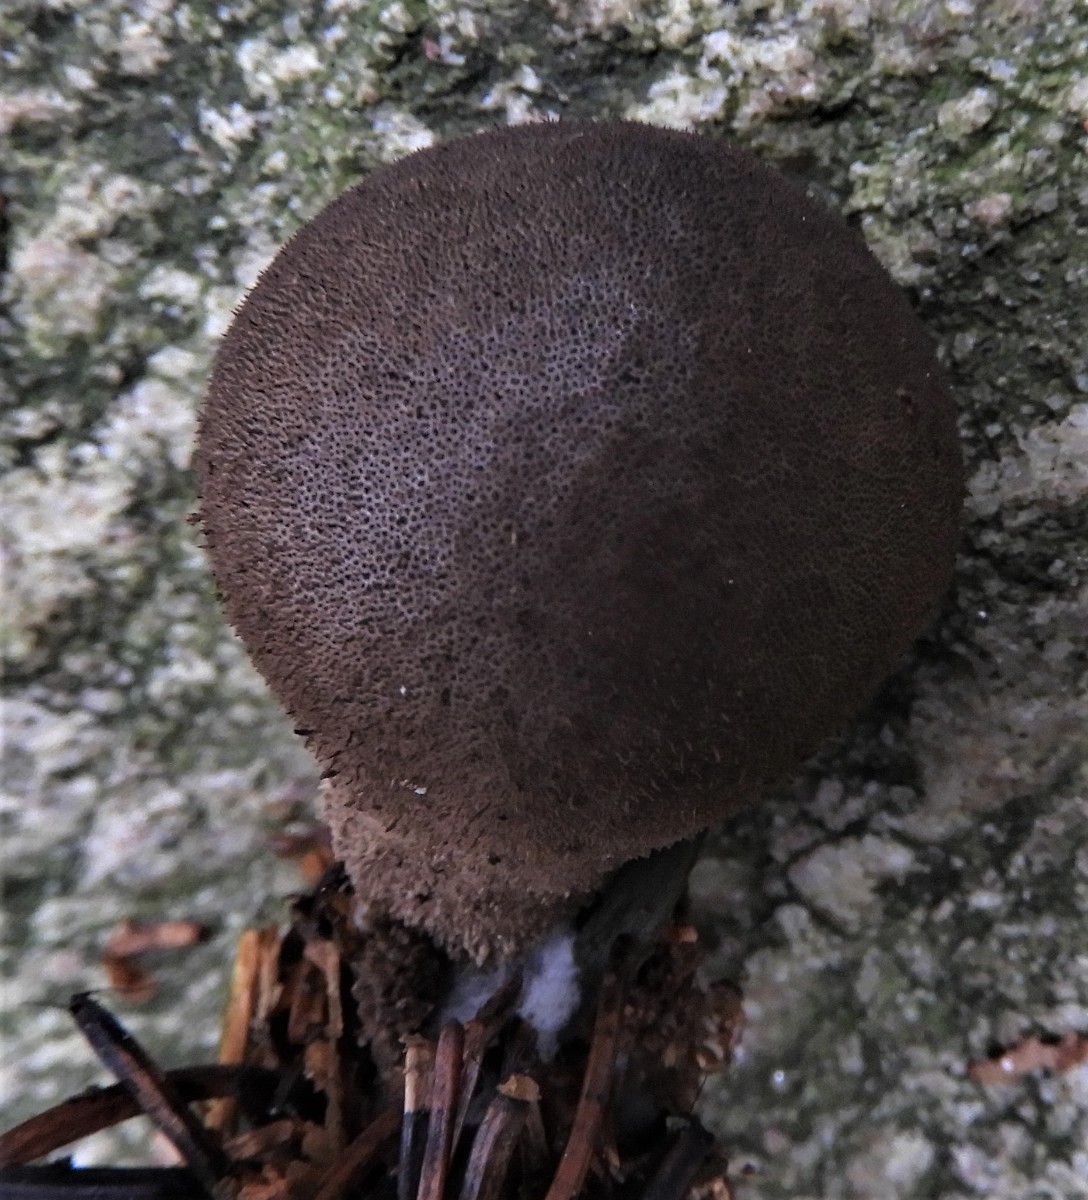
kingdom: Fungi
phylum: Basidiomycota
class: Agaricomycetes
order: Agaricales
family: Lycoperdaceae
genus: Lycoperdon
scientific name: Lycoperdon nigrescens
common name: sortagtig støvbold
